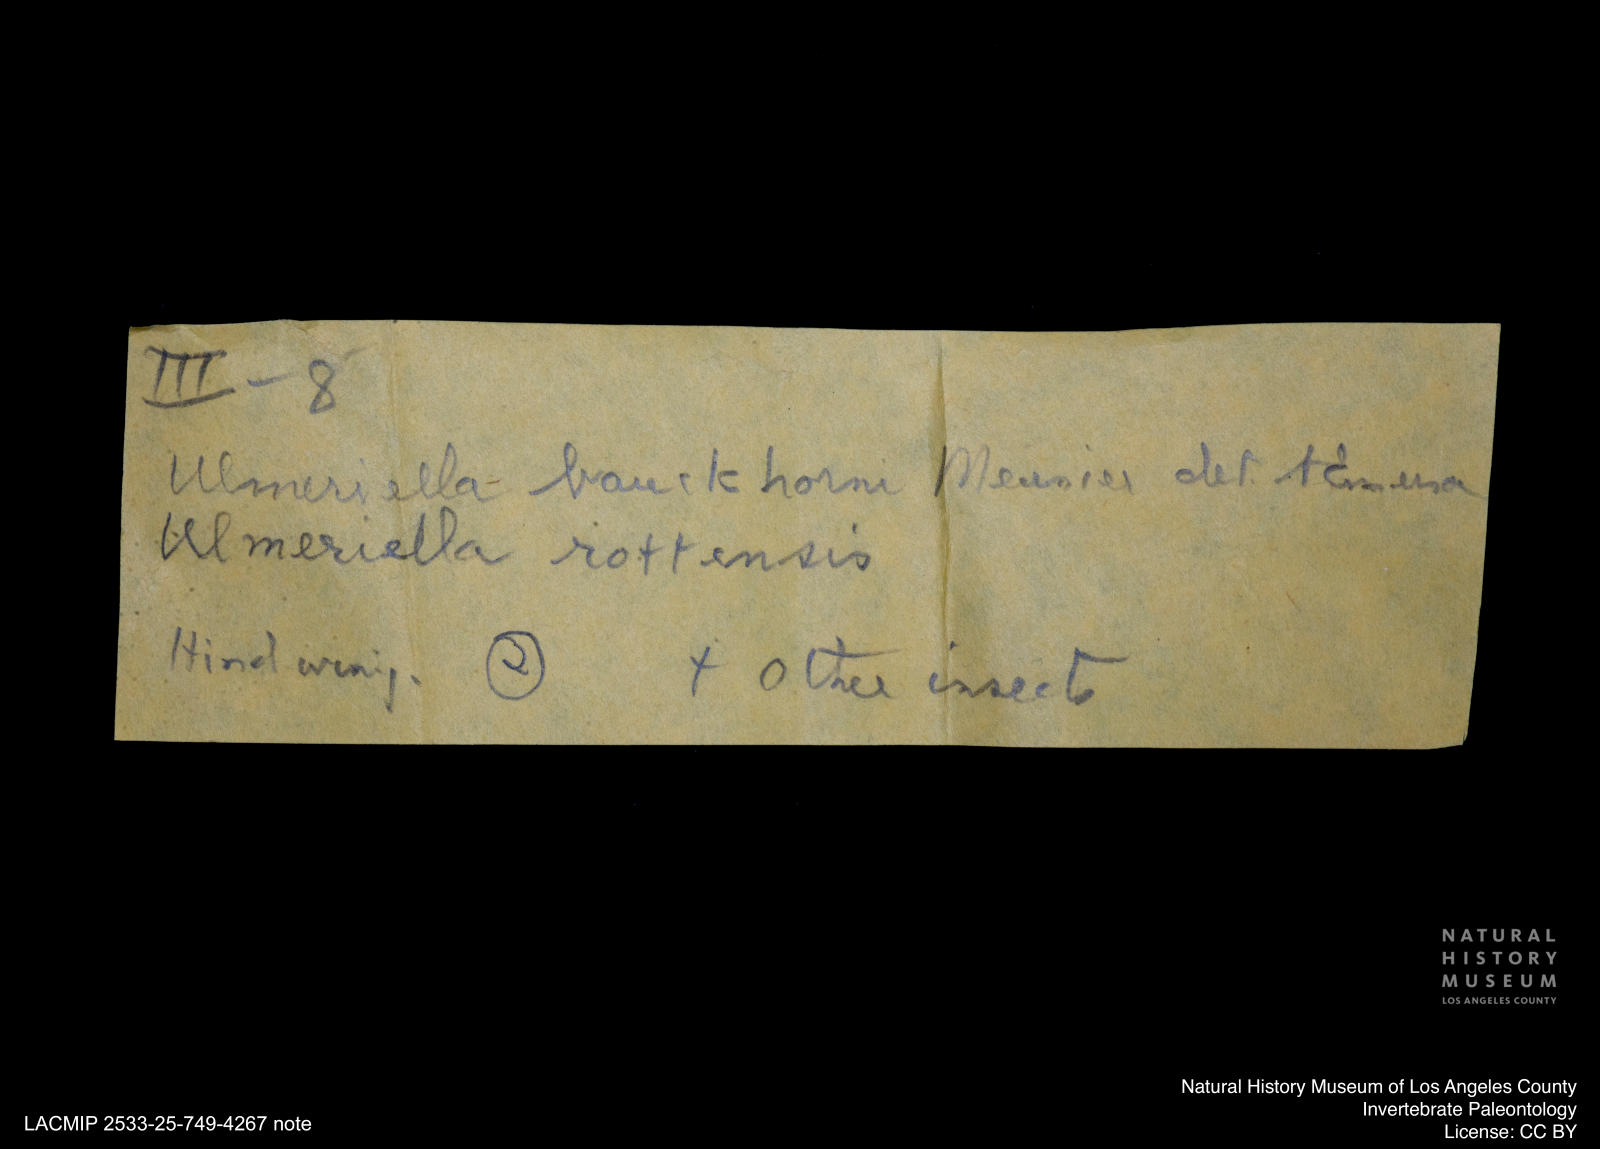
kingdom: Animalia
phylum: Arthropoda
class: Insecta
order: Blattodea
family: Hodotermitidae
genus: Ulmeriella
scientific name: Ulmeriella bauckhorni
